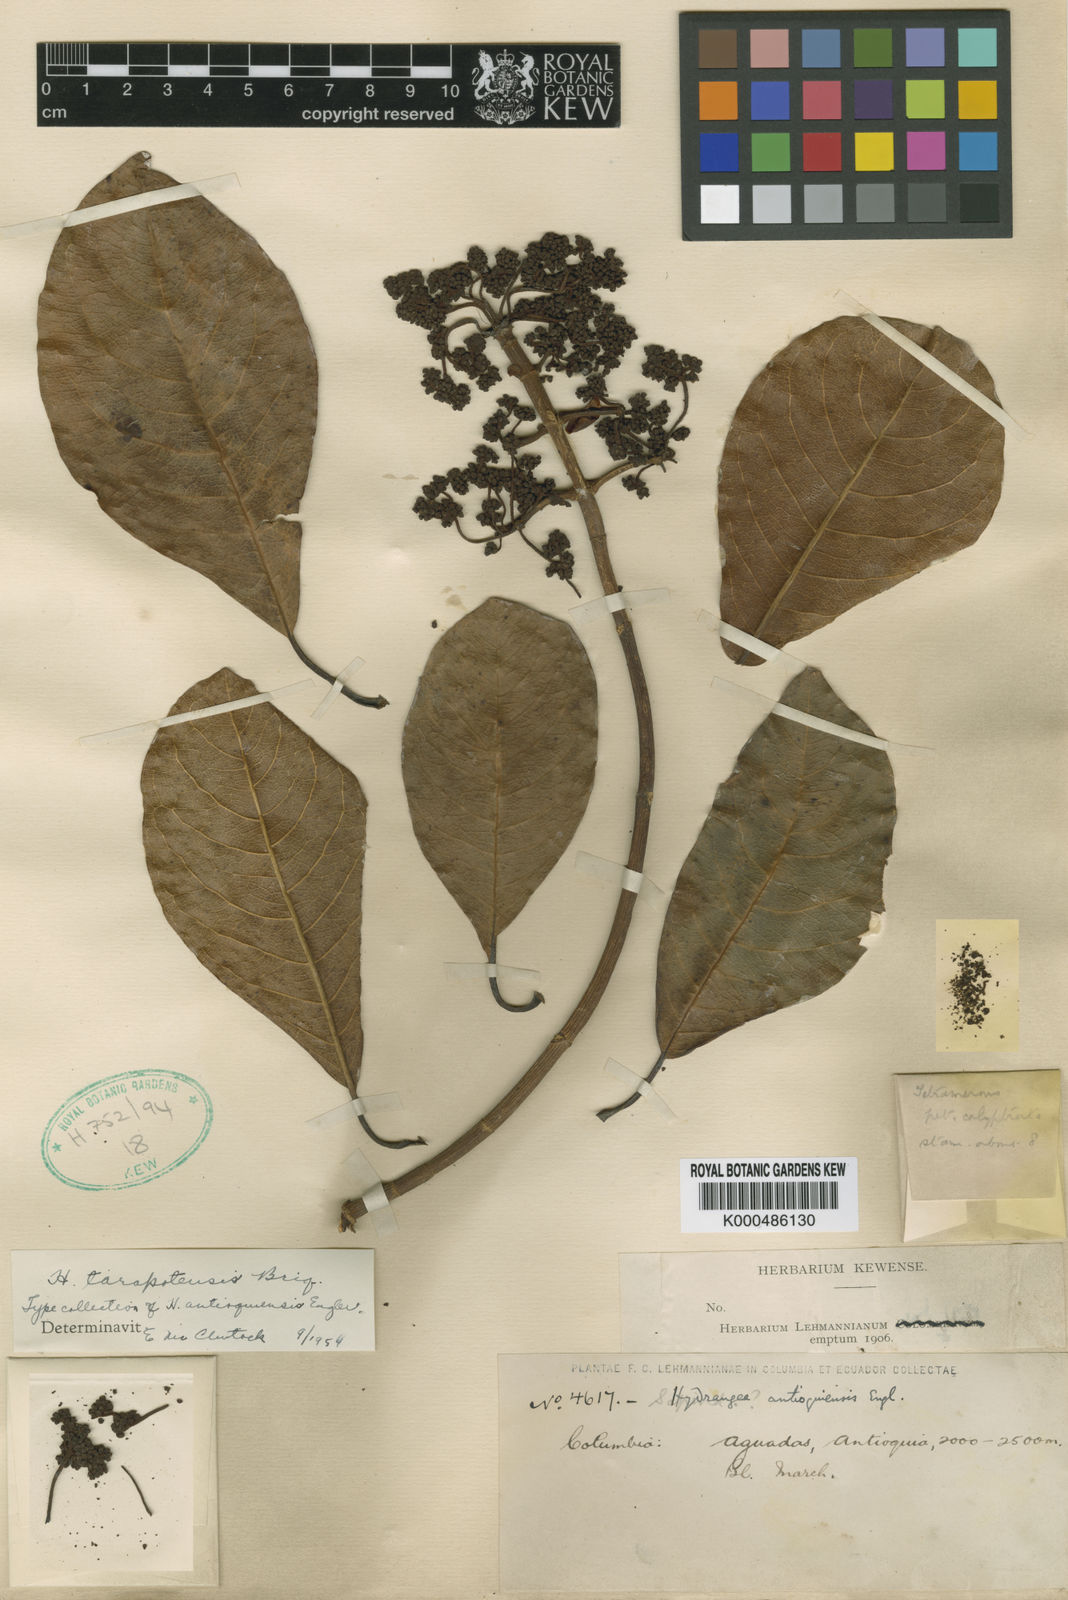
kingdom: Plantae
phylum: Tracheophyta
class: Magnoliopsida
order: Cornales
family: Hydrangeaceae
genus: Hydrangea
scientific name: Hydrangea tarapotensis
